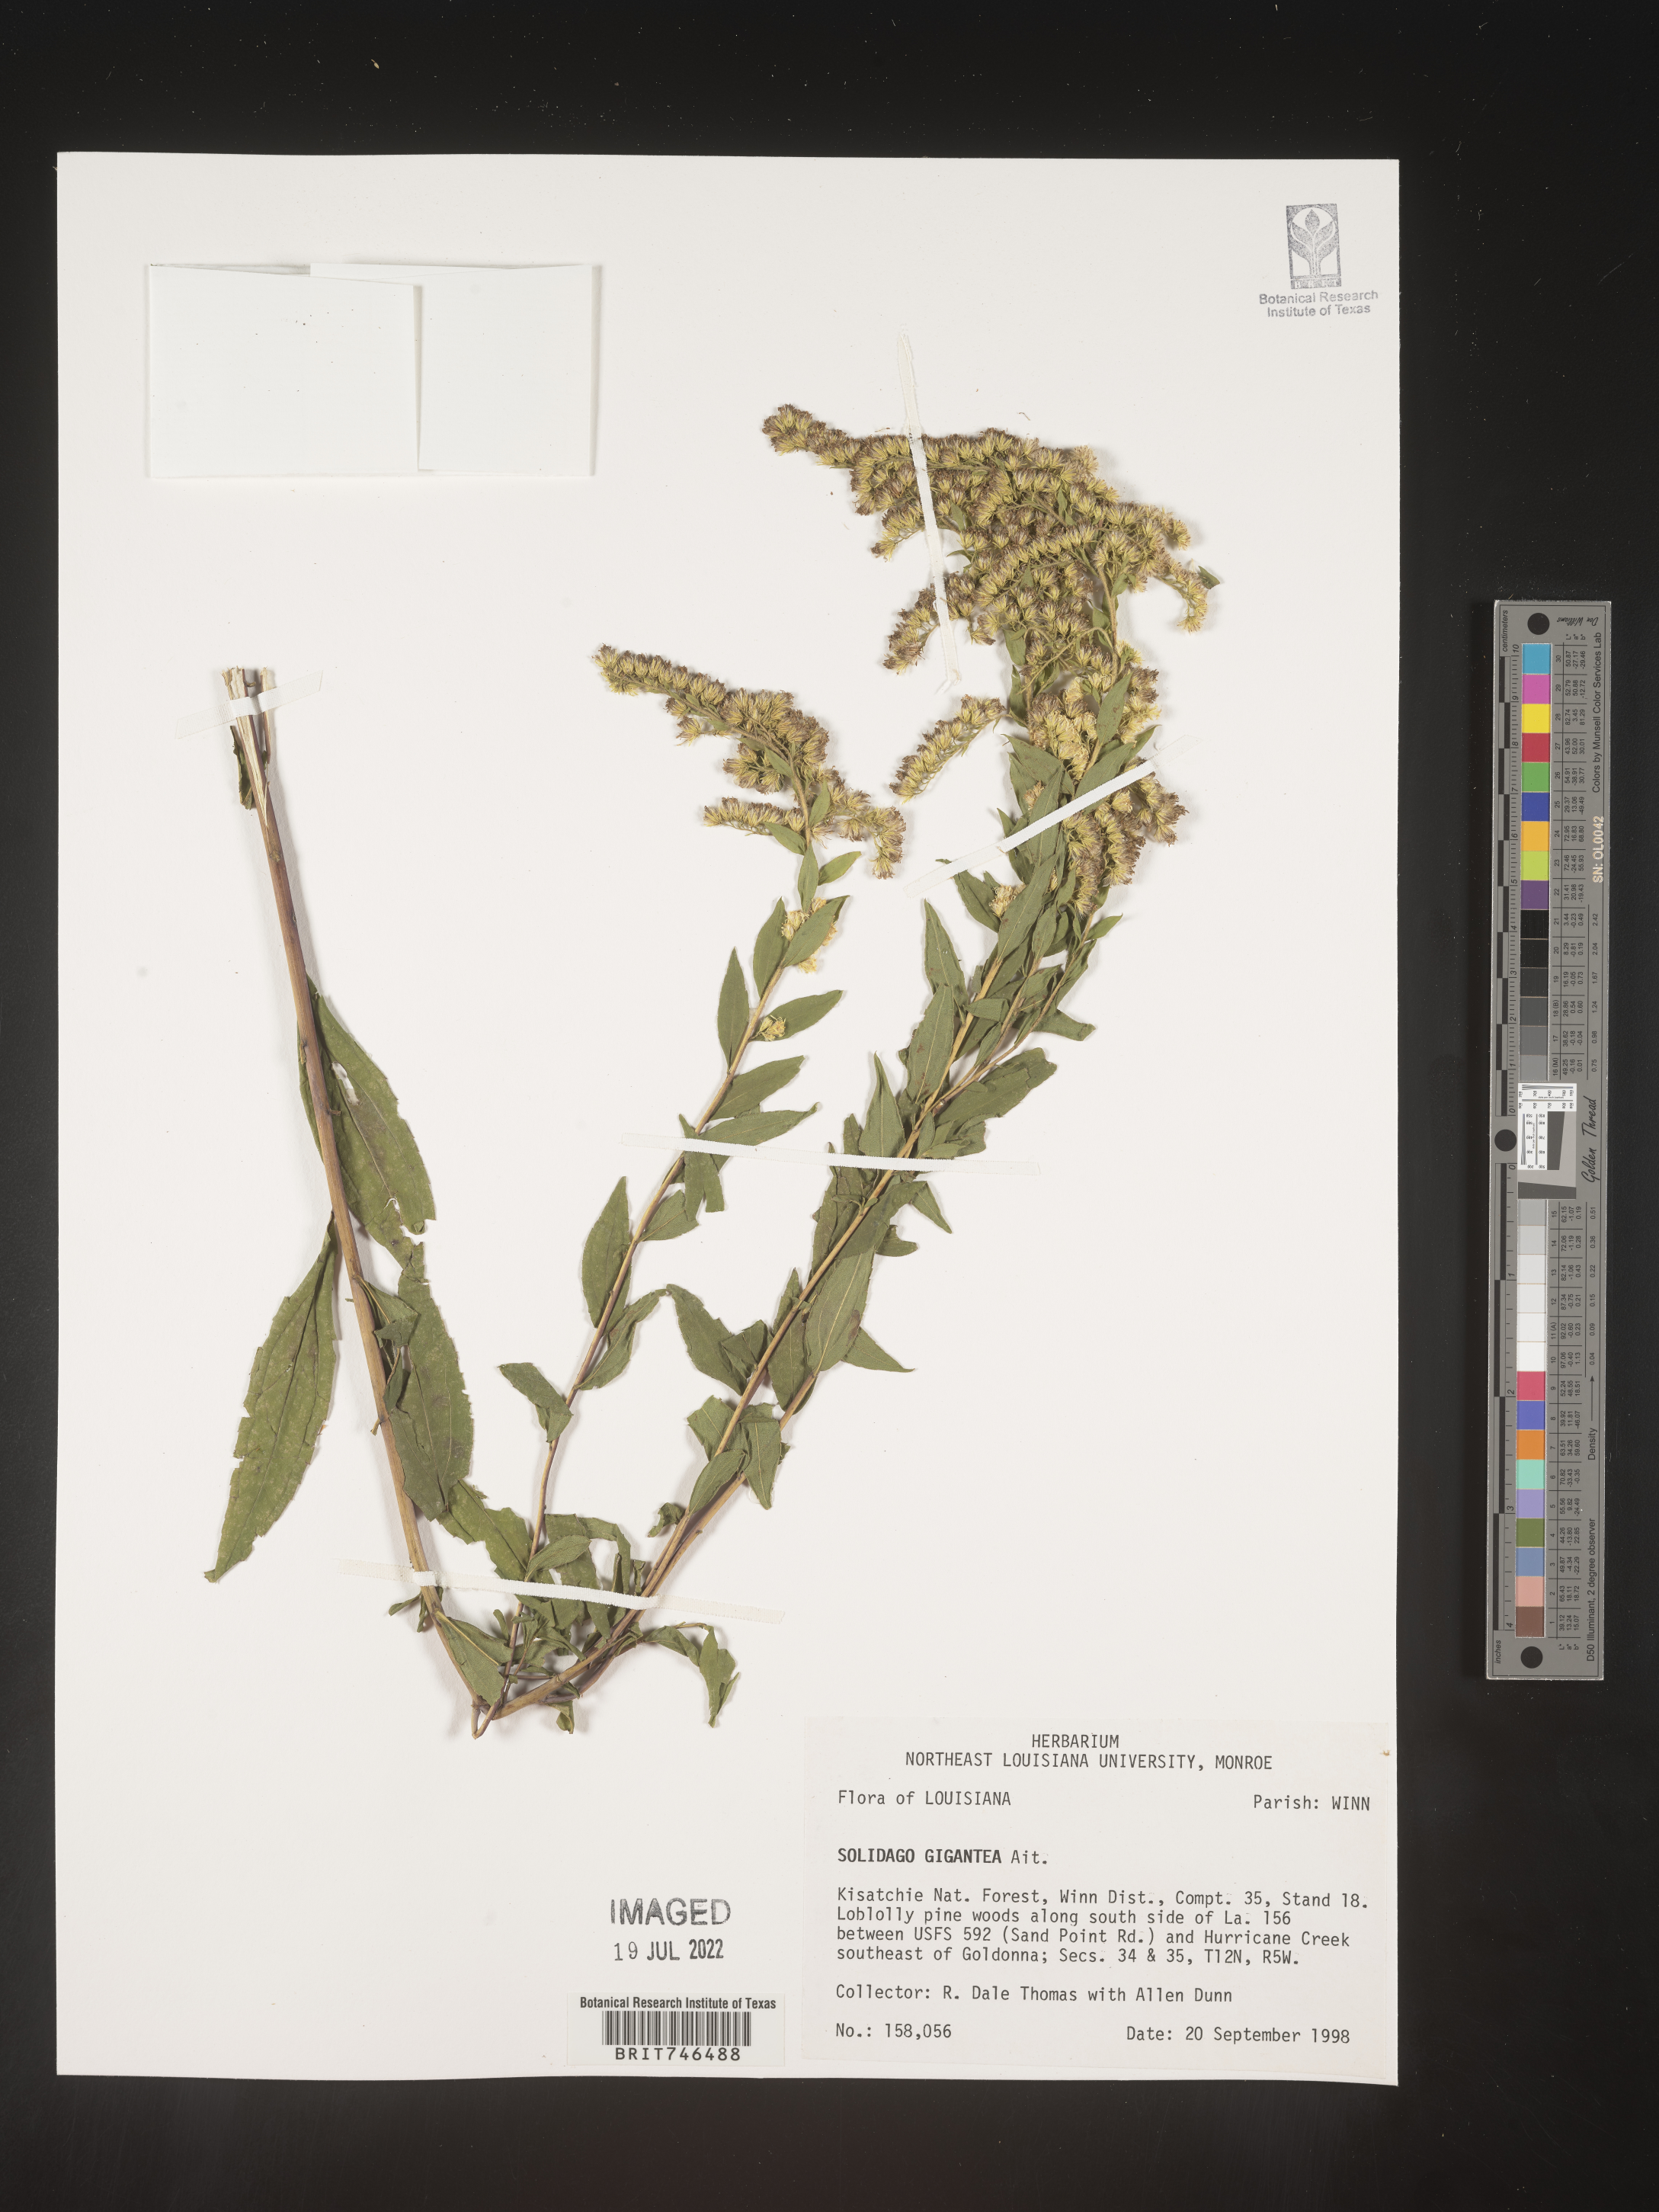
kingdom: Plantae
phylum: Tracheophyta
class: Magnoliopsida
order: Asterales
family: Asteraceae
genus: Solidago
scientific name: Solidago gigantea
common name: Giant goldenrod
